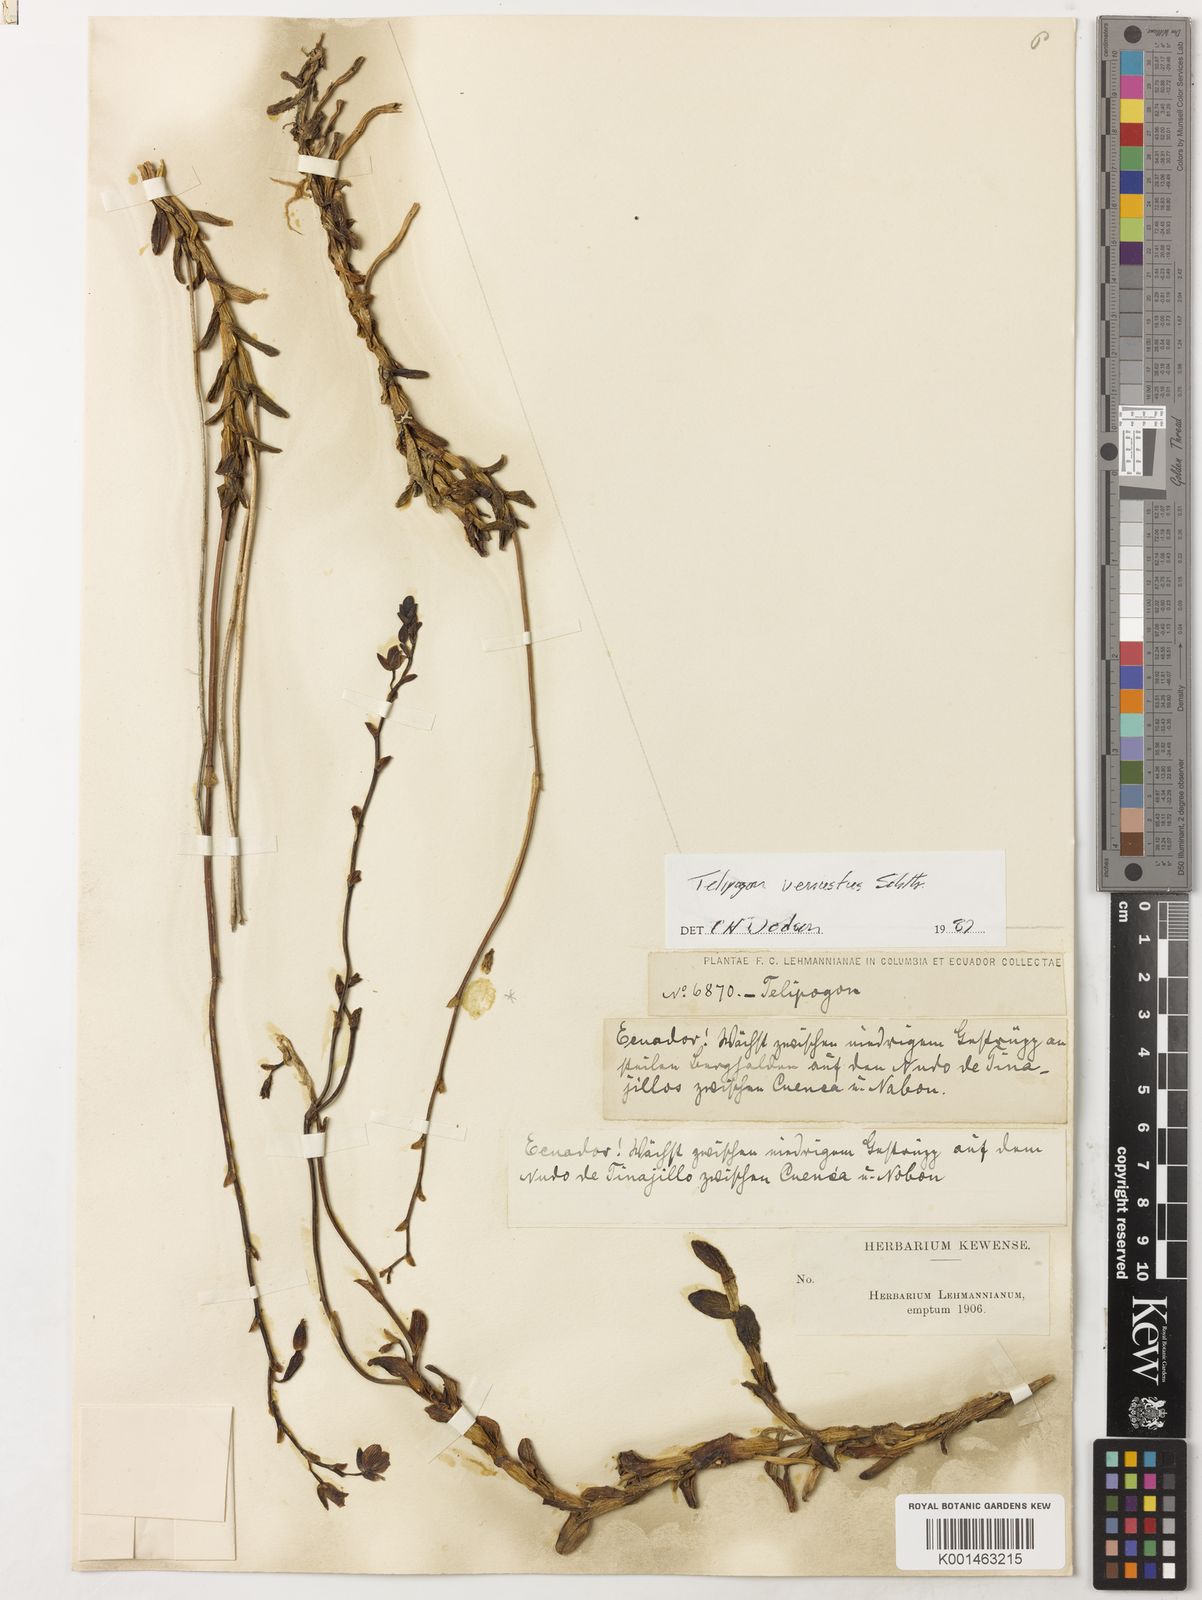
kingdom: Plantae
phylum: Tracheophyta
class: Liliopsida
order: Asparagales
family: Orchidaceae
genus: Telipogon
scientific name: Telipogon venustus
